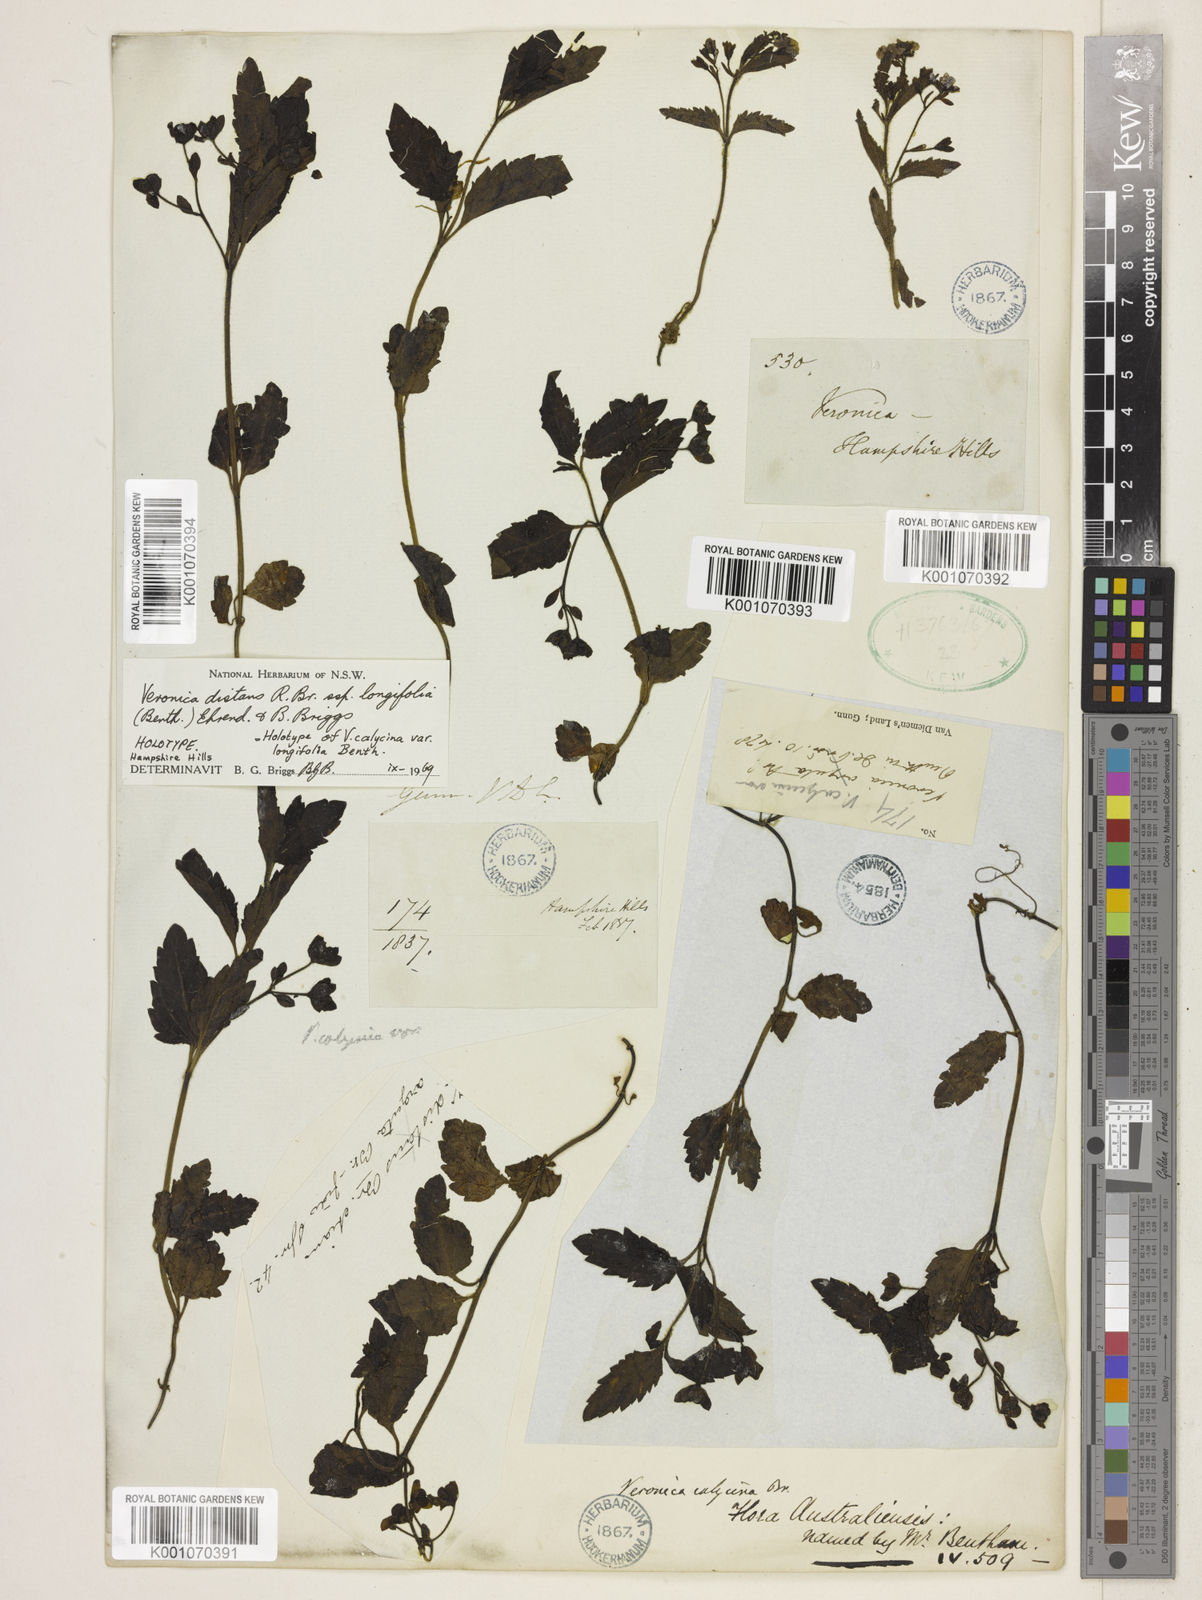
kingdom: Plantae
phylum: Tracheophyta
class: Magnoliopsida
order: Lamiales
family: Plantaginaceae
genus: Veronica
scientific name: Veronica distans
